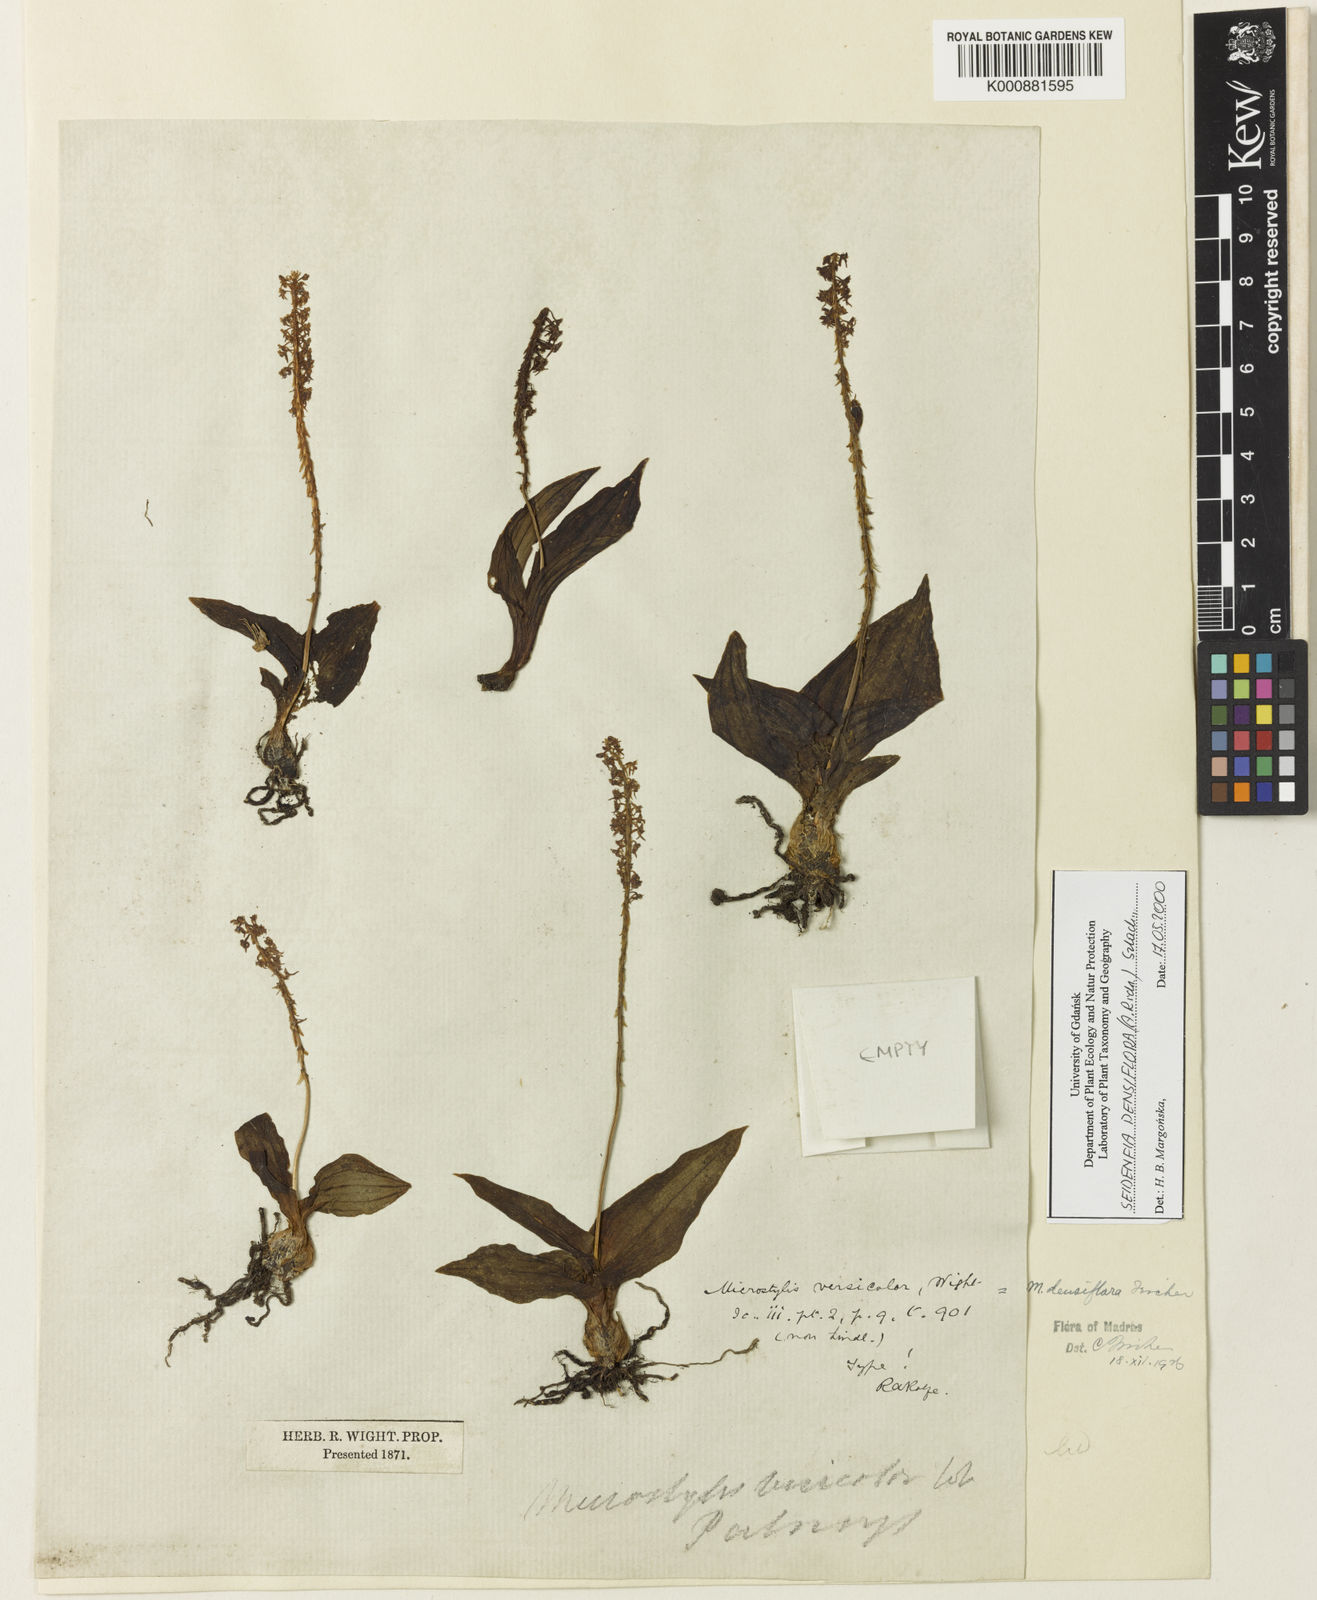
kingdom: Plantae
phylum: Tracheophyta
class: Liliopsida
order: Asparagales
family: Orchidaceae
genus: Malaxis
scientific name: Malaxis densiflora
